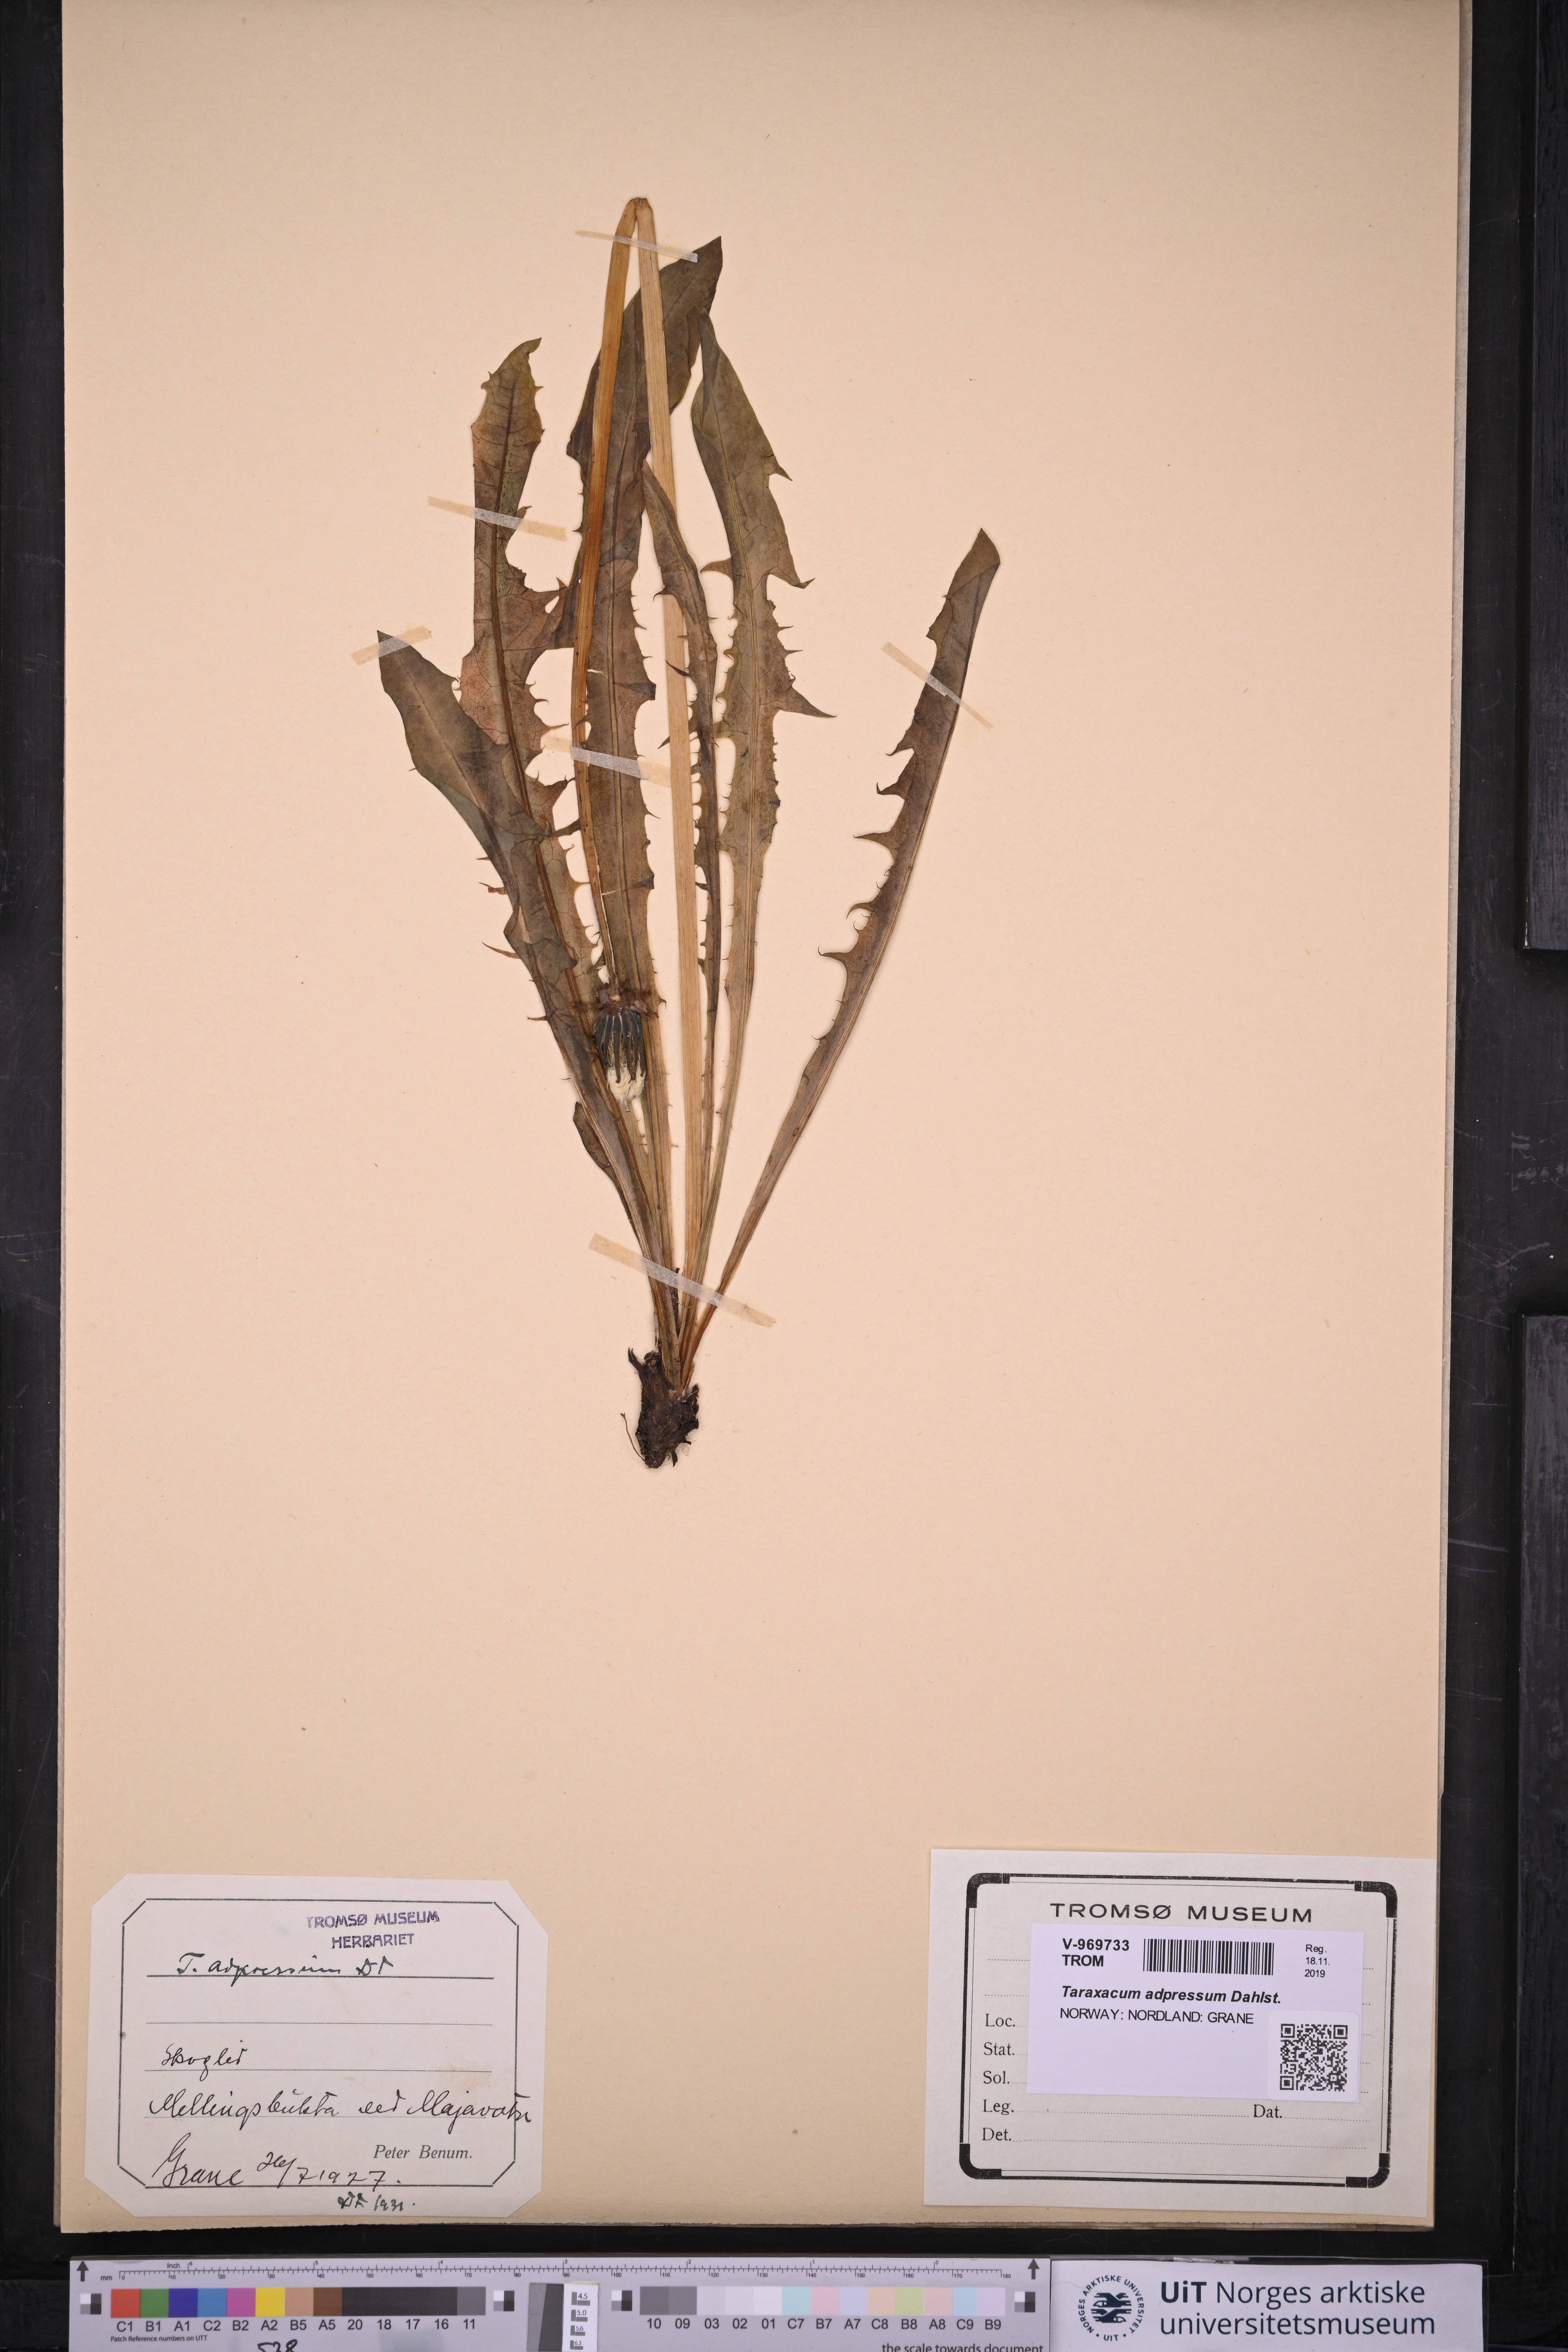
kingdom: Plantae
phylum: Tracheophyta
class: Magnoliopsida
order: Asterales
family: Asteraceae
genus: Taraxacum
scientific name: Taraxacum adpressum
